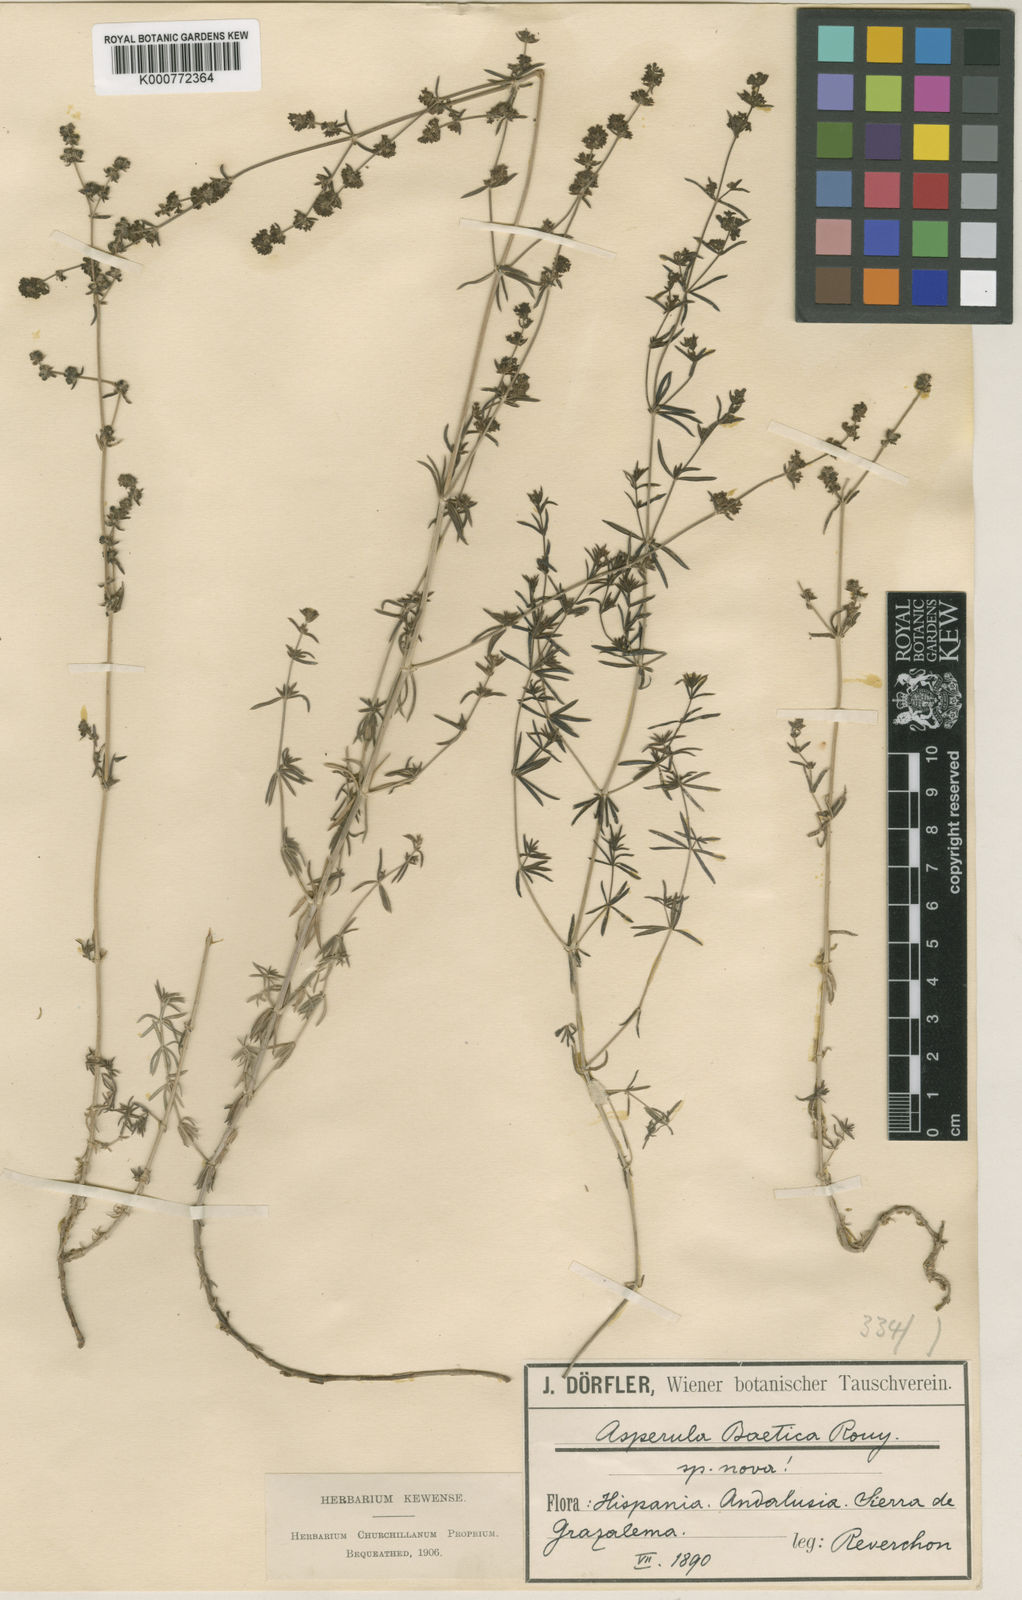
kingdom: Plantae
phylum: Tracheophyta
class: Magnoliopsida
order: Gentianales
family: Rubiaceae
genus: Galium
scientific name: Galium baeticum
